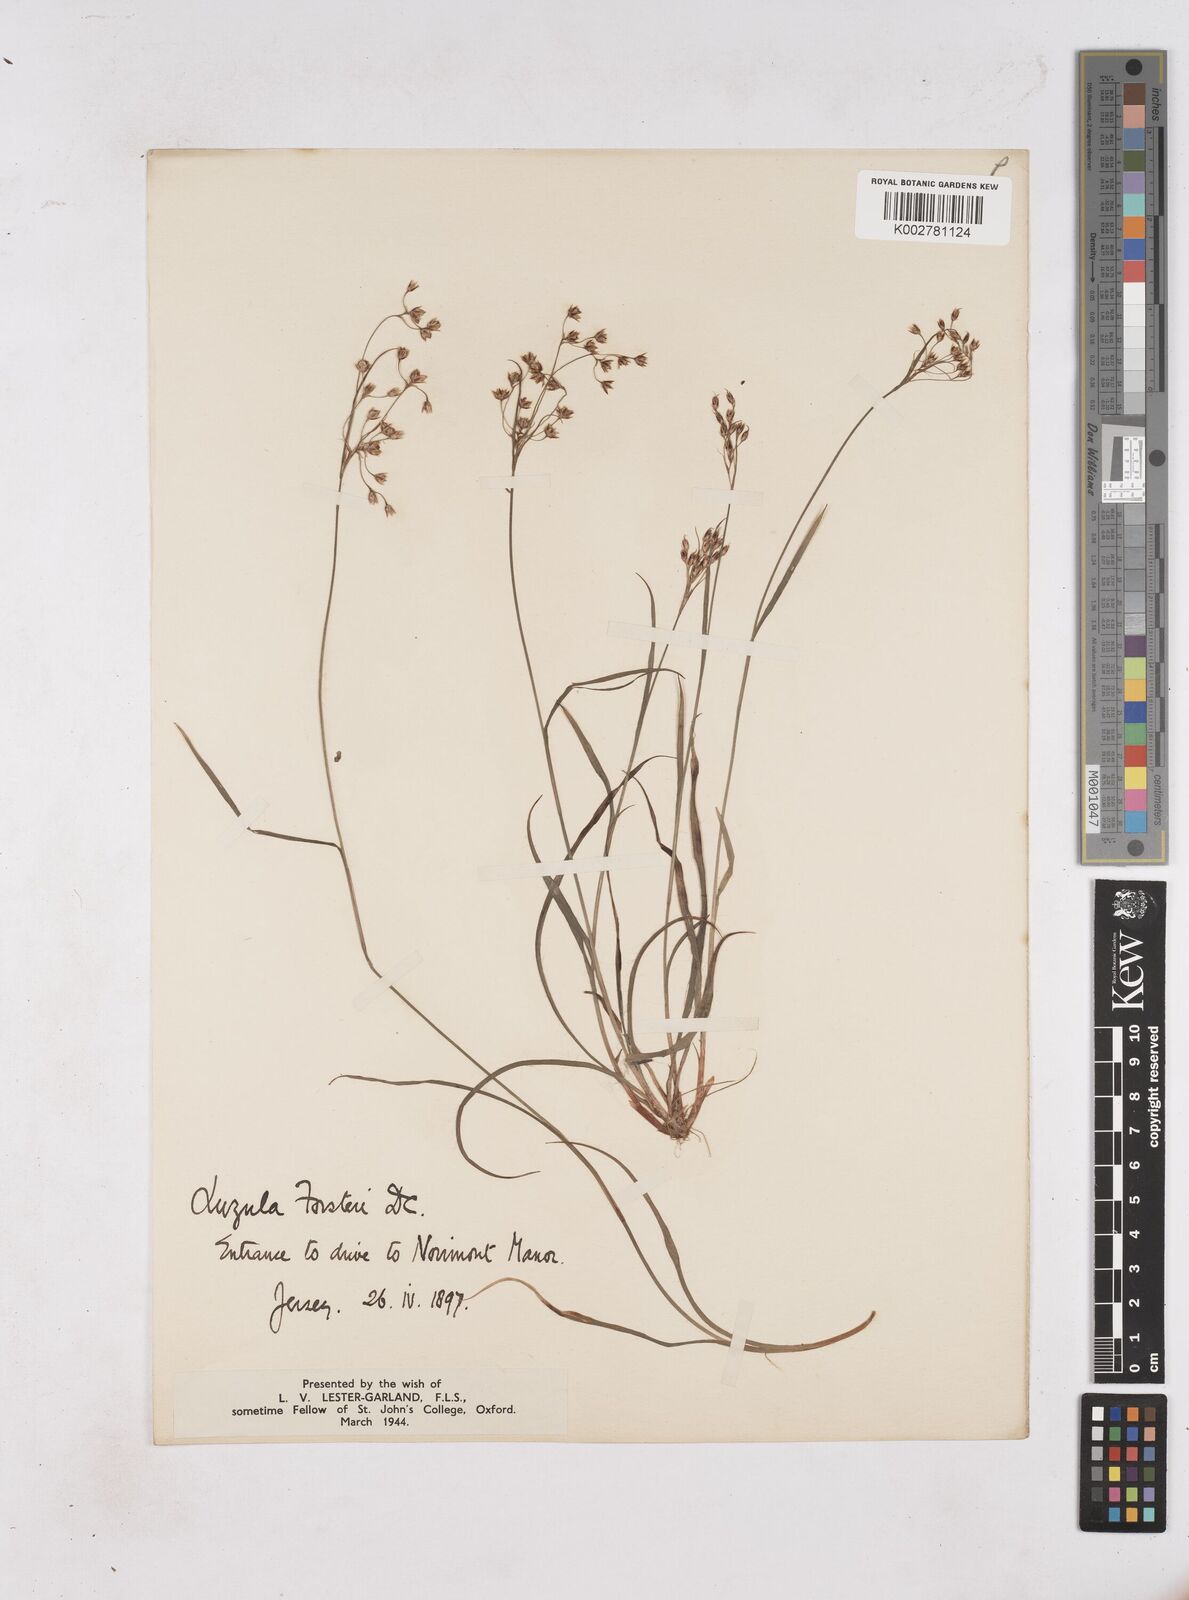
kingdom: Plantae
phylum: Tracheophyta
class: Liliopsida
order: Poales
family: Juncaceae
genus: Luzula
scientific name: Luzula forsteri
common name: Southern wood-rush
